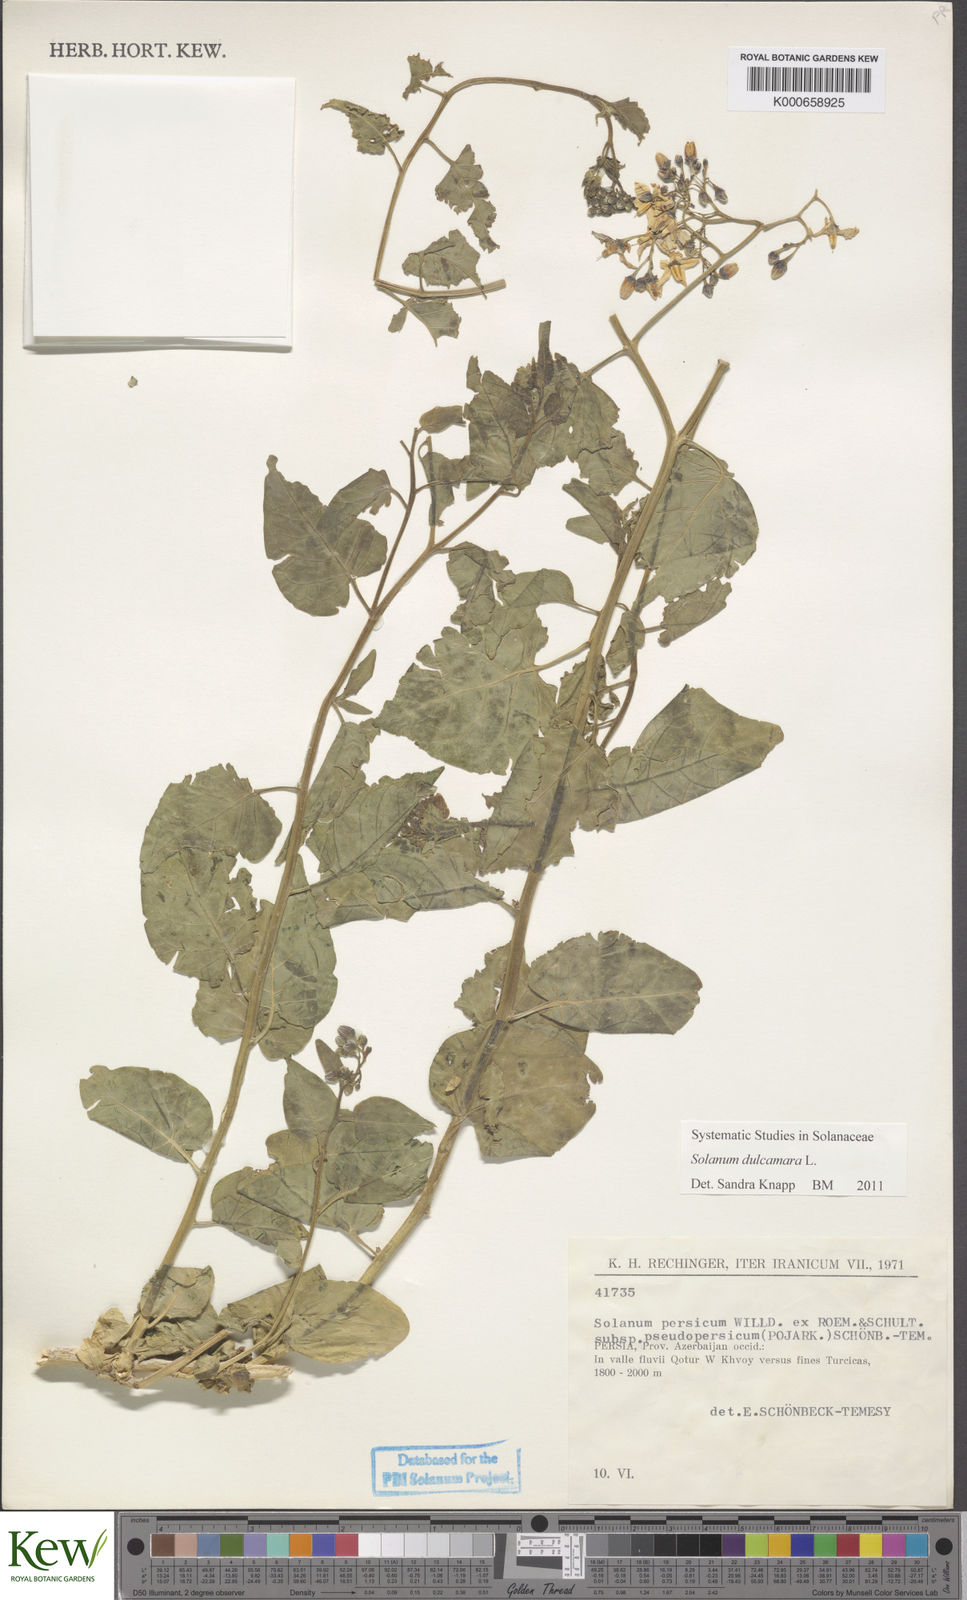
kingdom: Plantae
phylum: Tracheophyta
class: Magnoliopsida
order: Solanales
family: Solanaceae
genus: Solanum
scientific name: Solanum dulcamara
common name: Climbing nightshade
